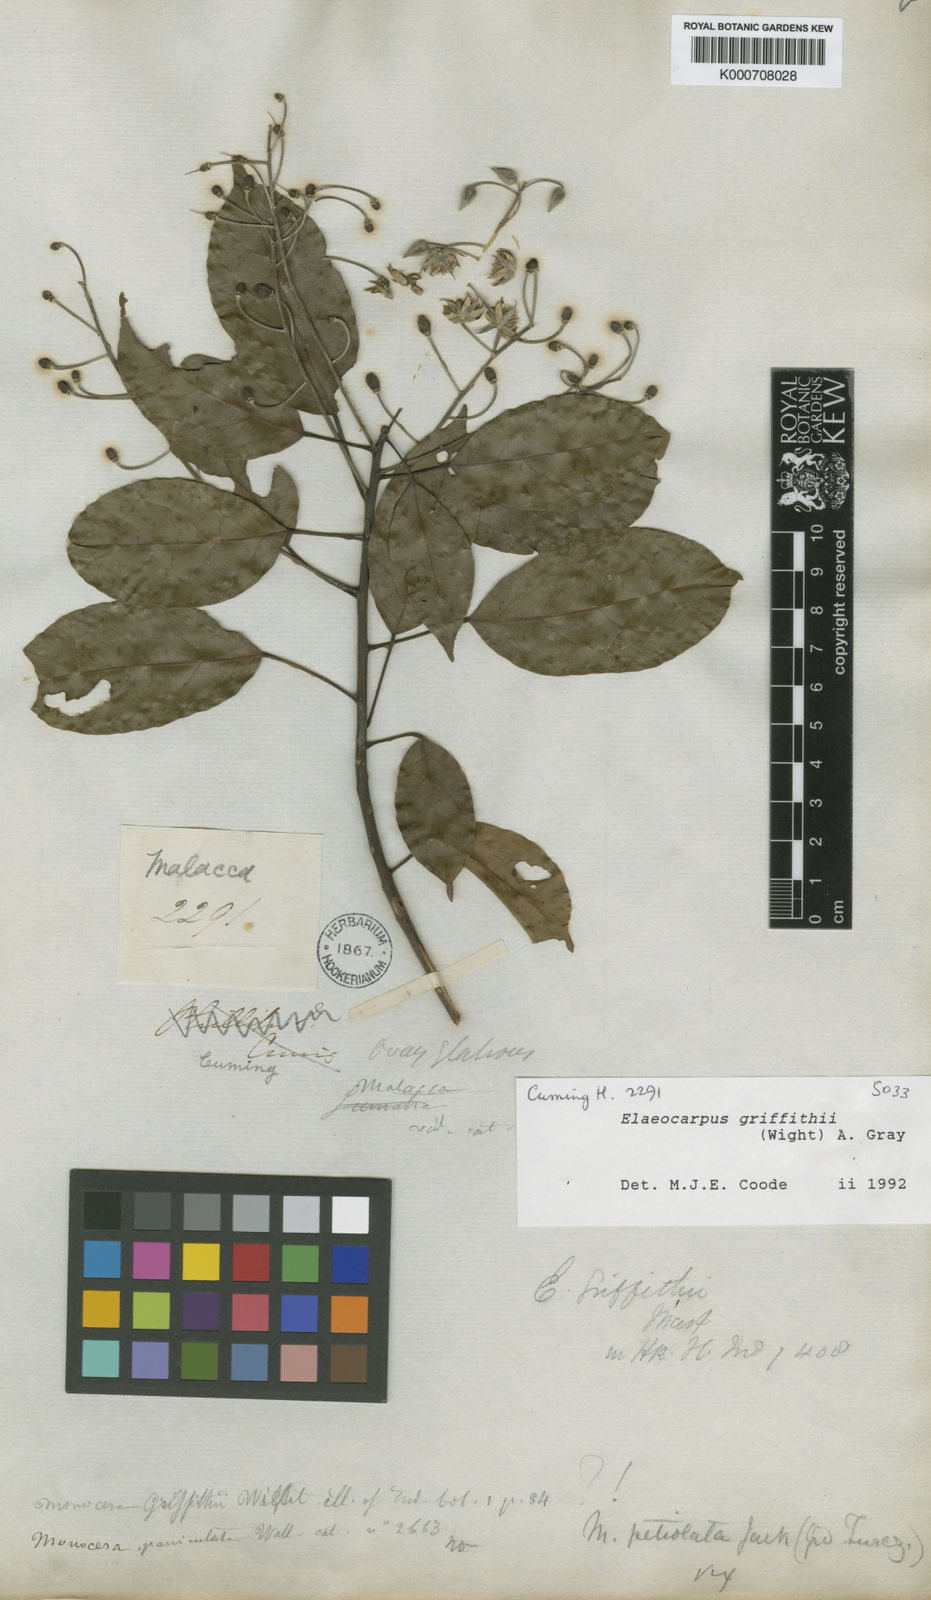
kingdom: Plantae
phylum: Tracheophyta
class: Magnoliopsida
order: Oxalidales
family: Elaeocarpaceae
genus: Elaeocarpus
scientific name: Elaeocarpus griffithii
